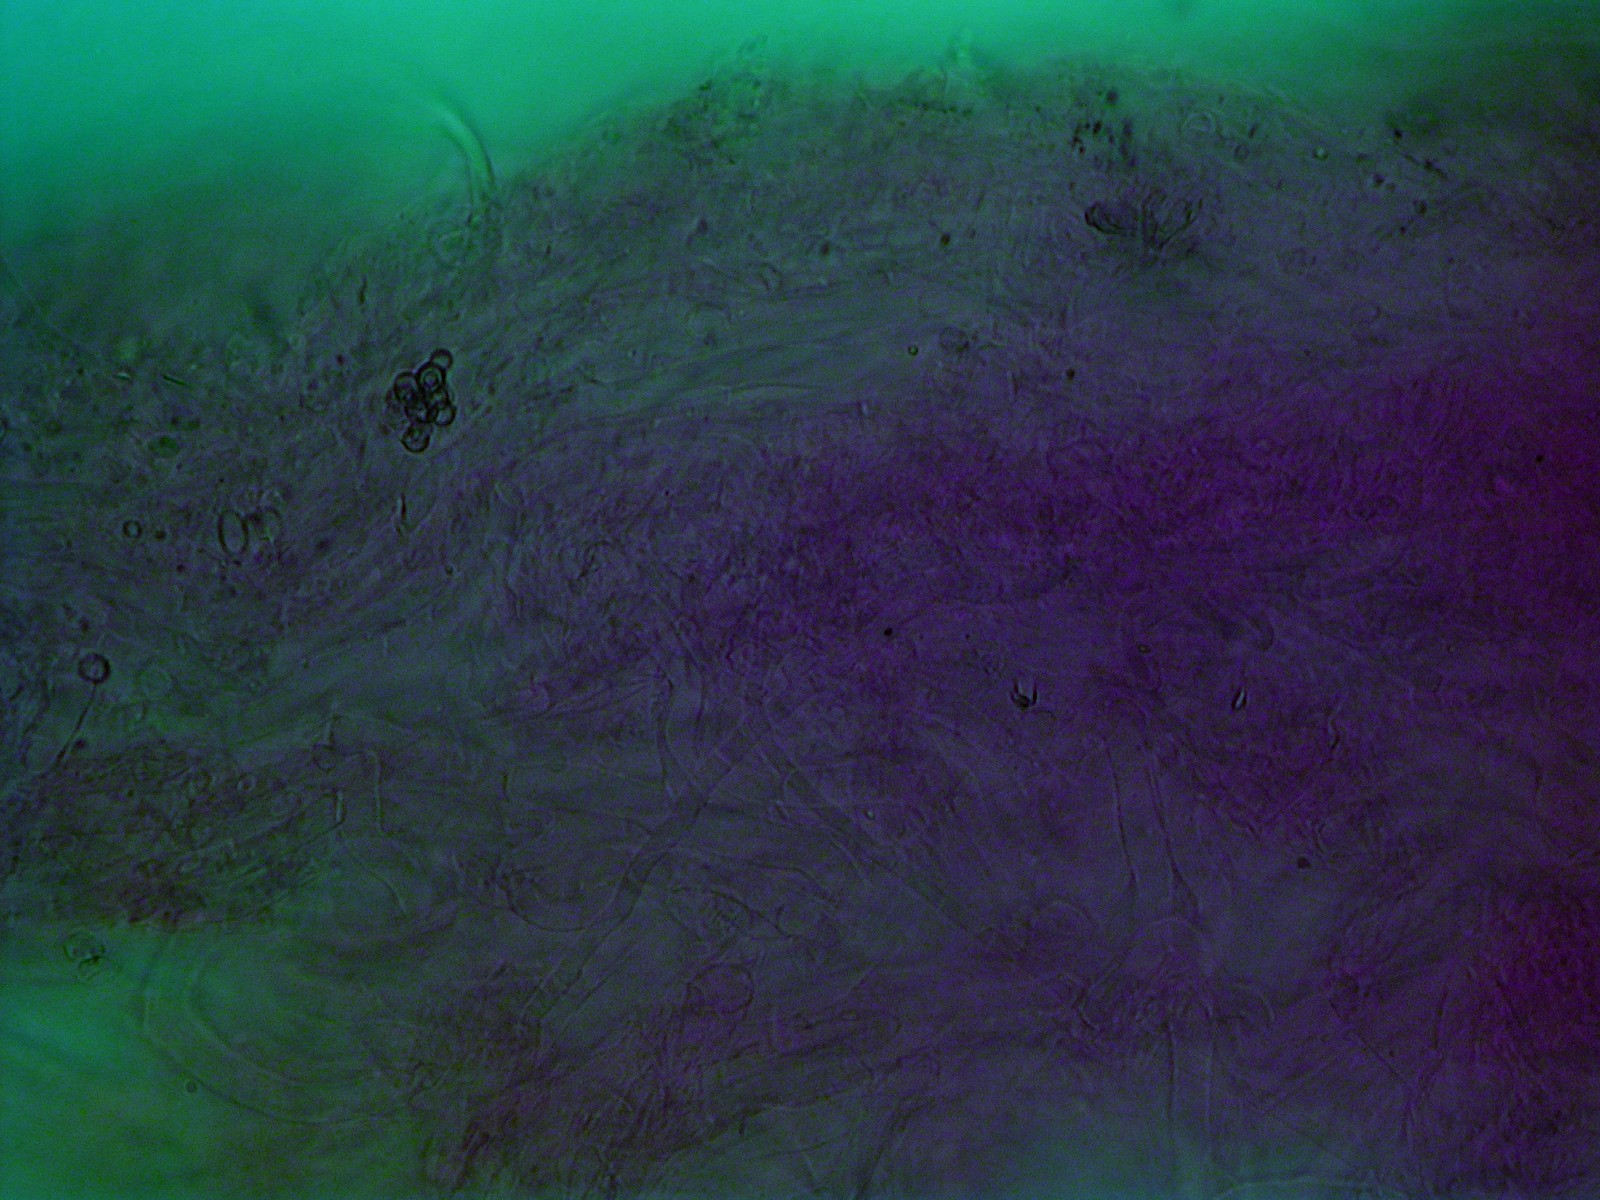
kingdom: Fungi
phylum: Basidiomycota
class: Agaricomycetes
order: Agaricales
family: Tricholomataceae
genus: Clitocybe
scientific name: Clitocybe
